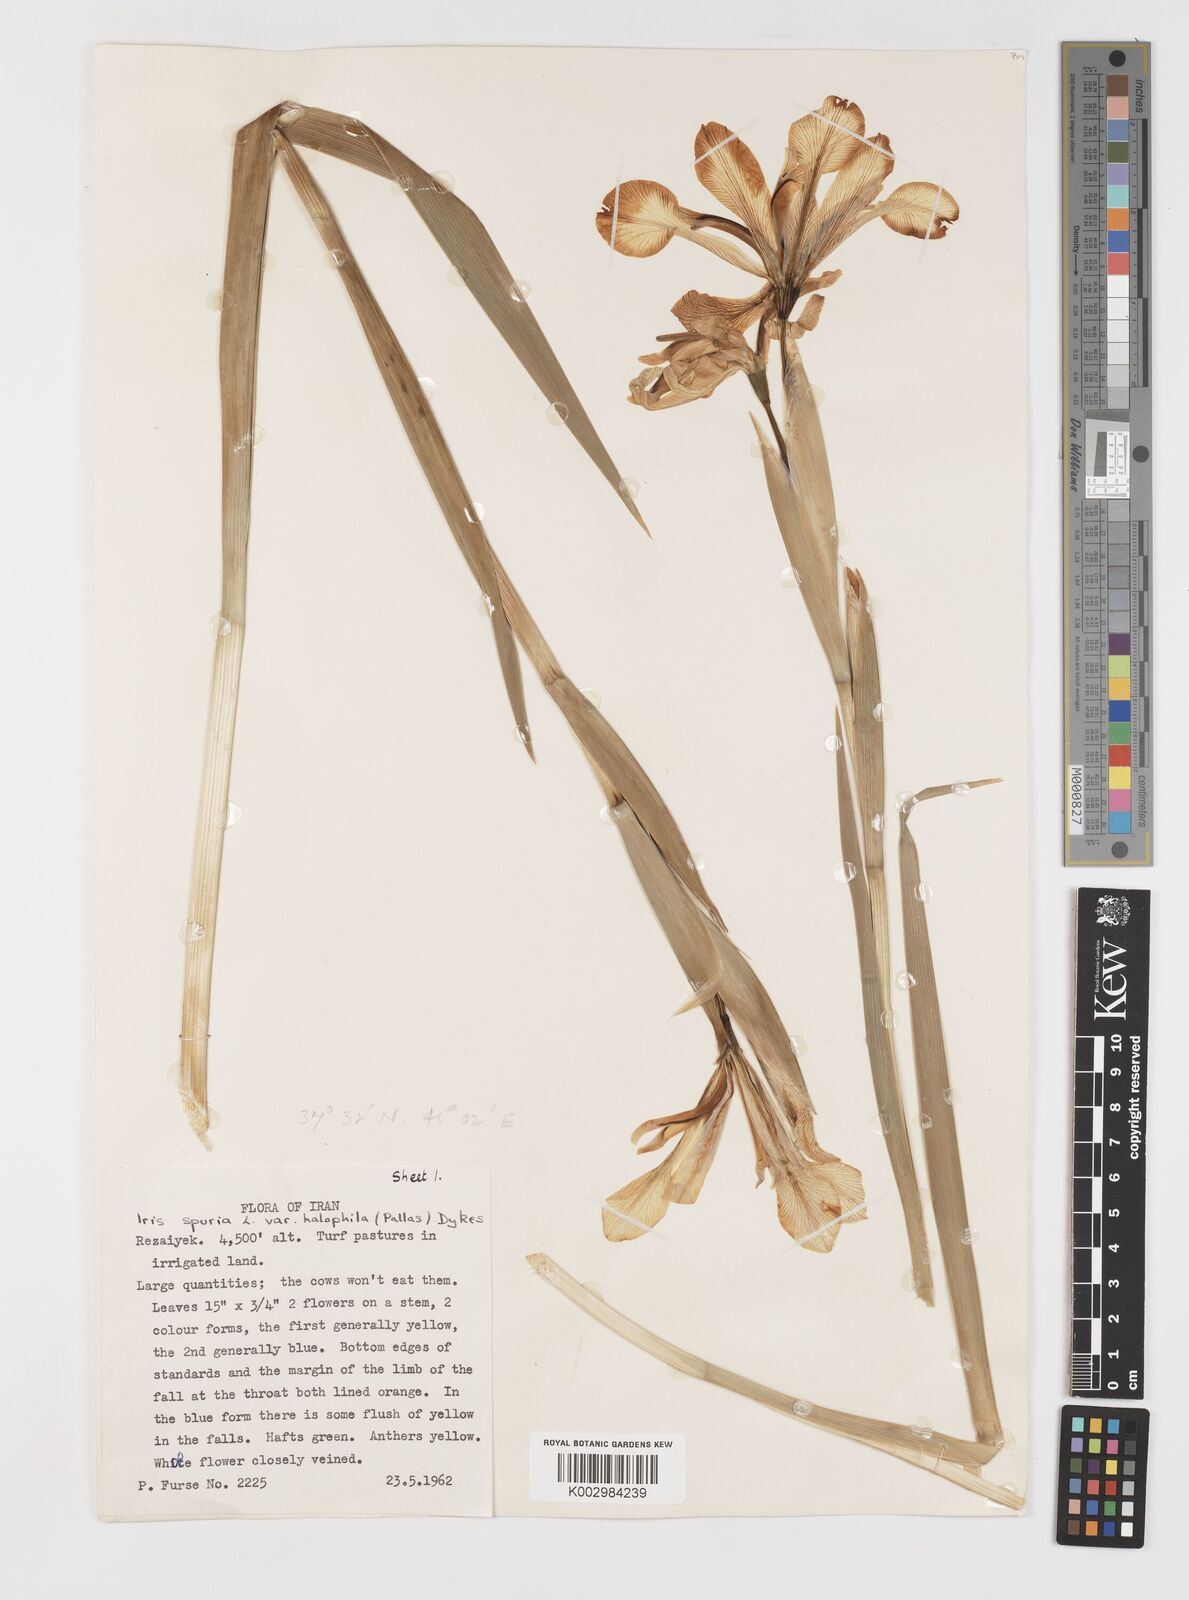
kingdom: Plantae
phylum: Tracheophyta
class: Liliopsida
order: Asparagales
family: Iridaceae
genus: Iris
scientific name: Iris spuria
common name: Blue iris
